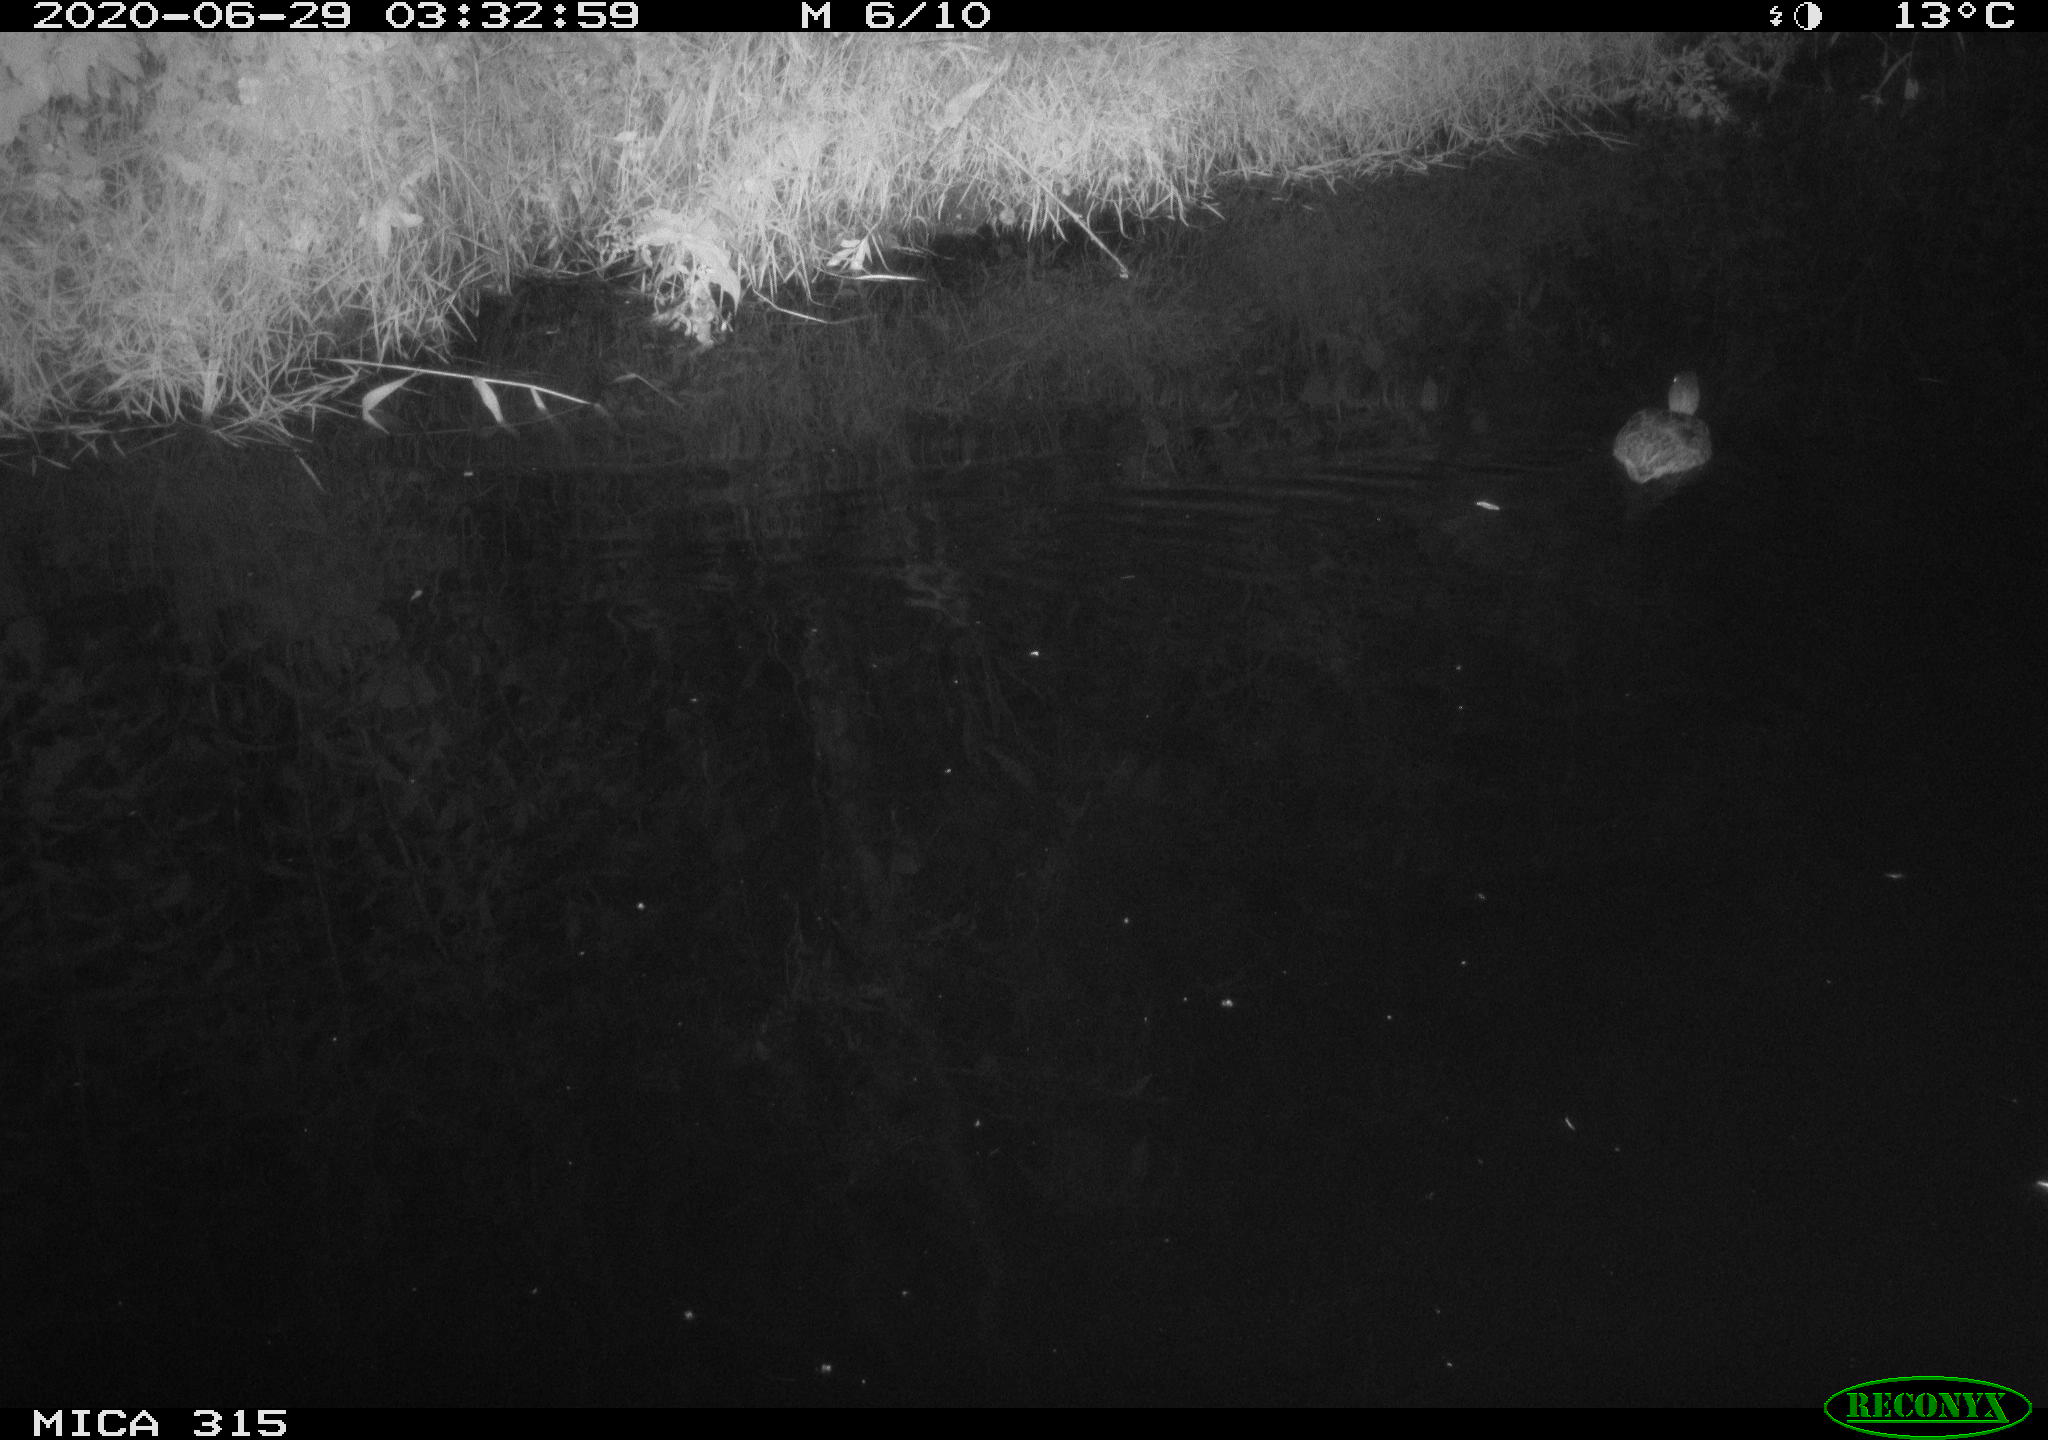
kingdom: Animalia
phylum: Chordata
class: Aves
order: Anseriformes
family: Anatidae
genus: Anas
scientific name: Anas platyrhynchos
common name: Mallard
